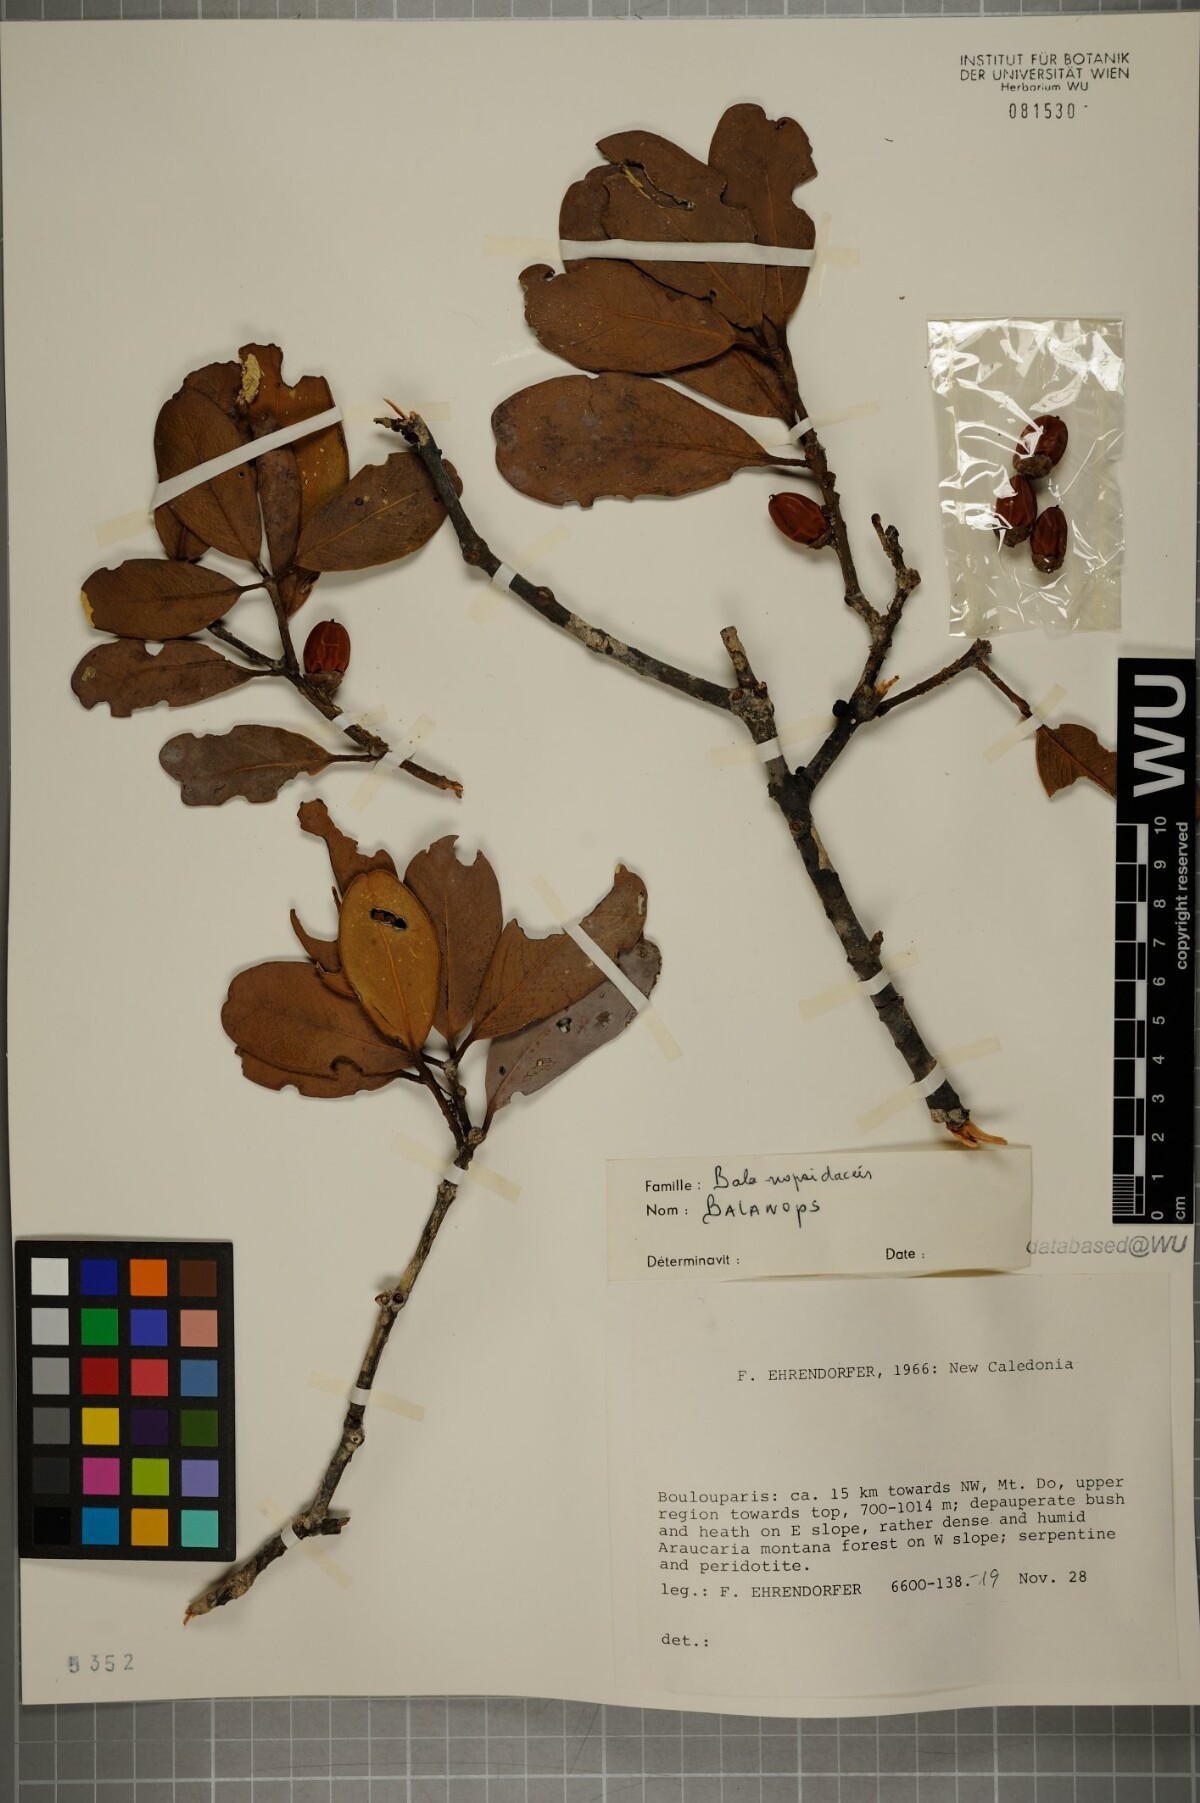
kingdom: Plantae
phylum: Tracheophyta
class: Magnoliopsida
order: Malpighiales
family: Balanopaceae
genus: Balanops
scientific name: Balanops
